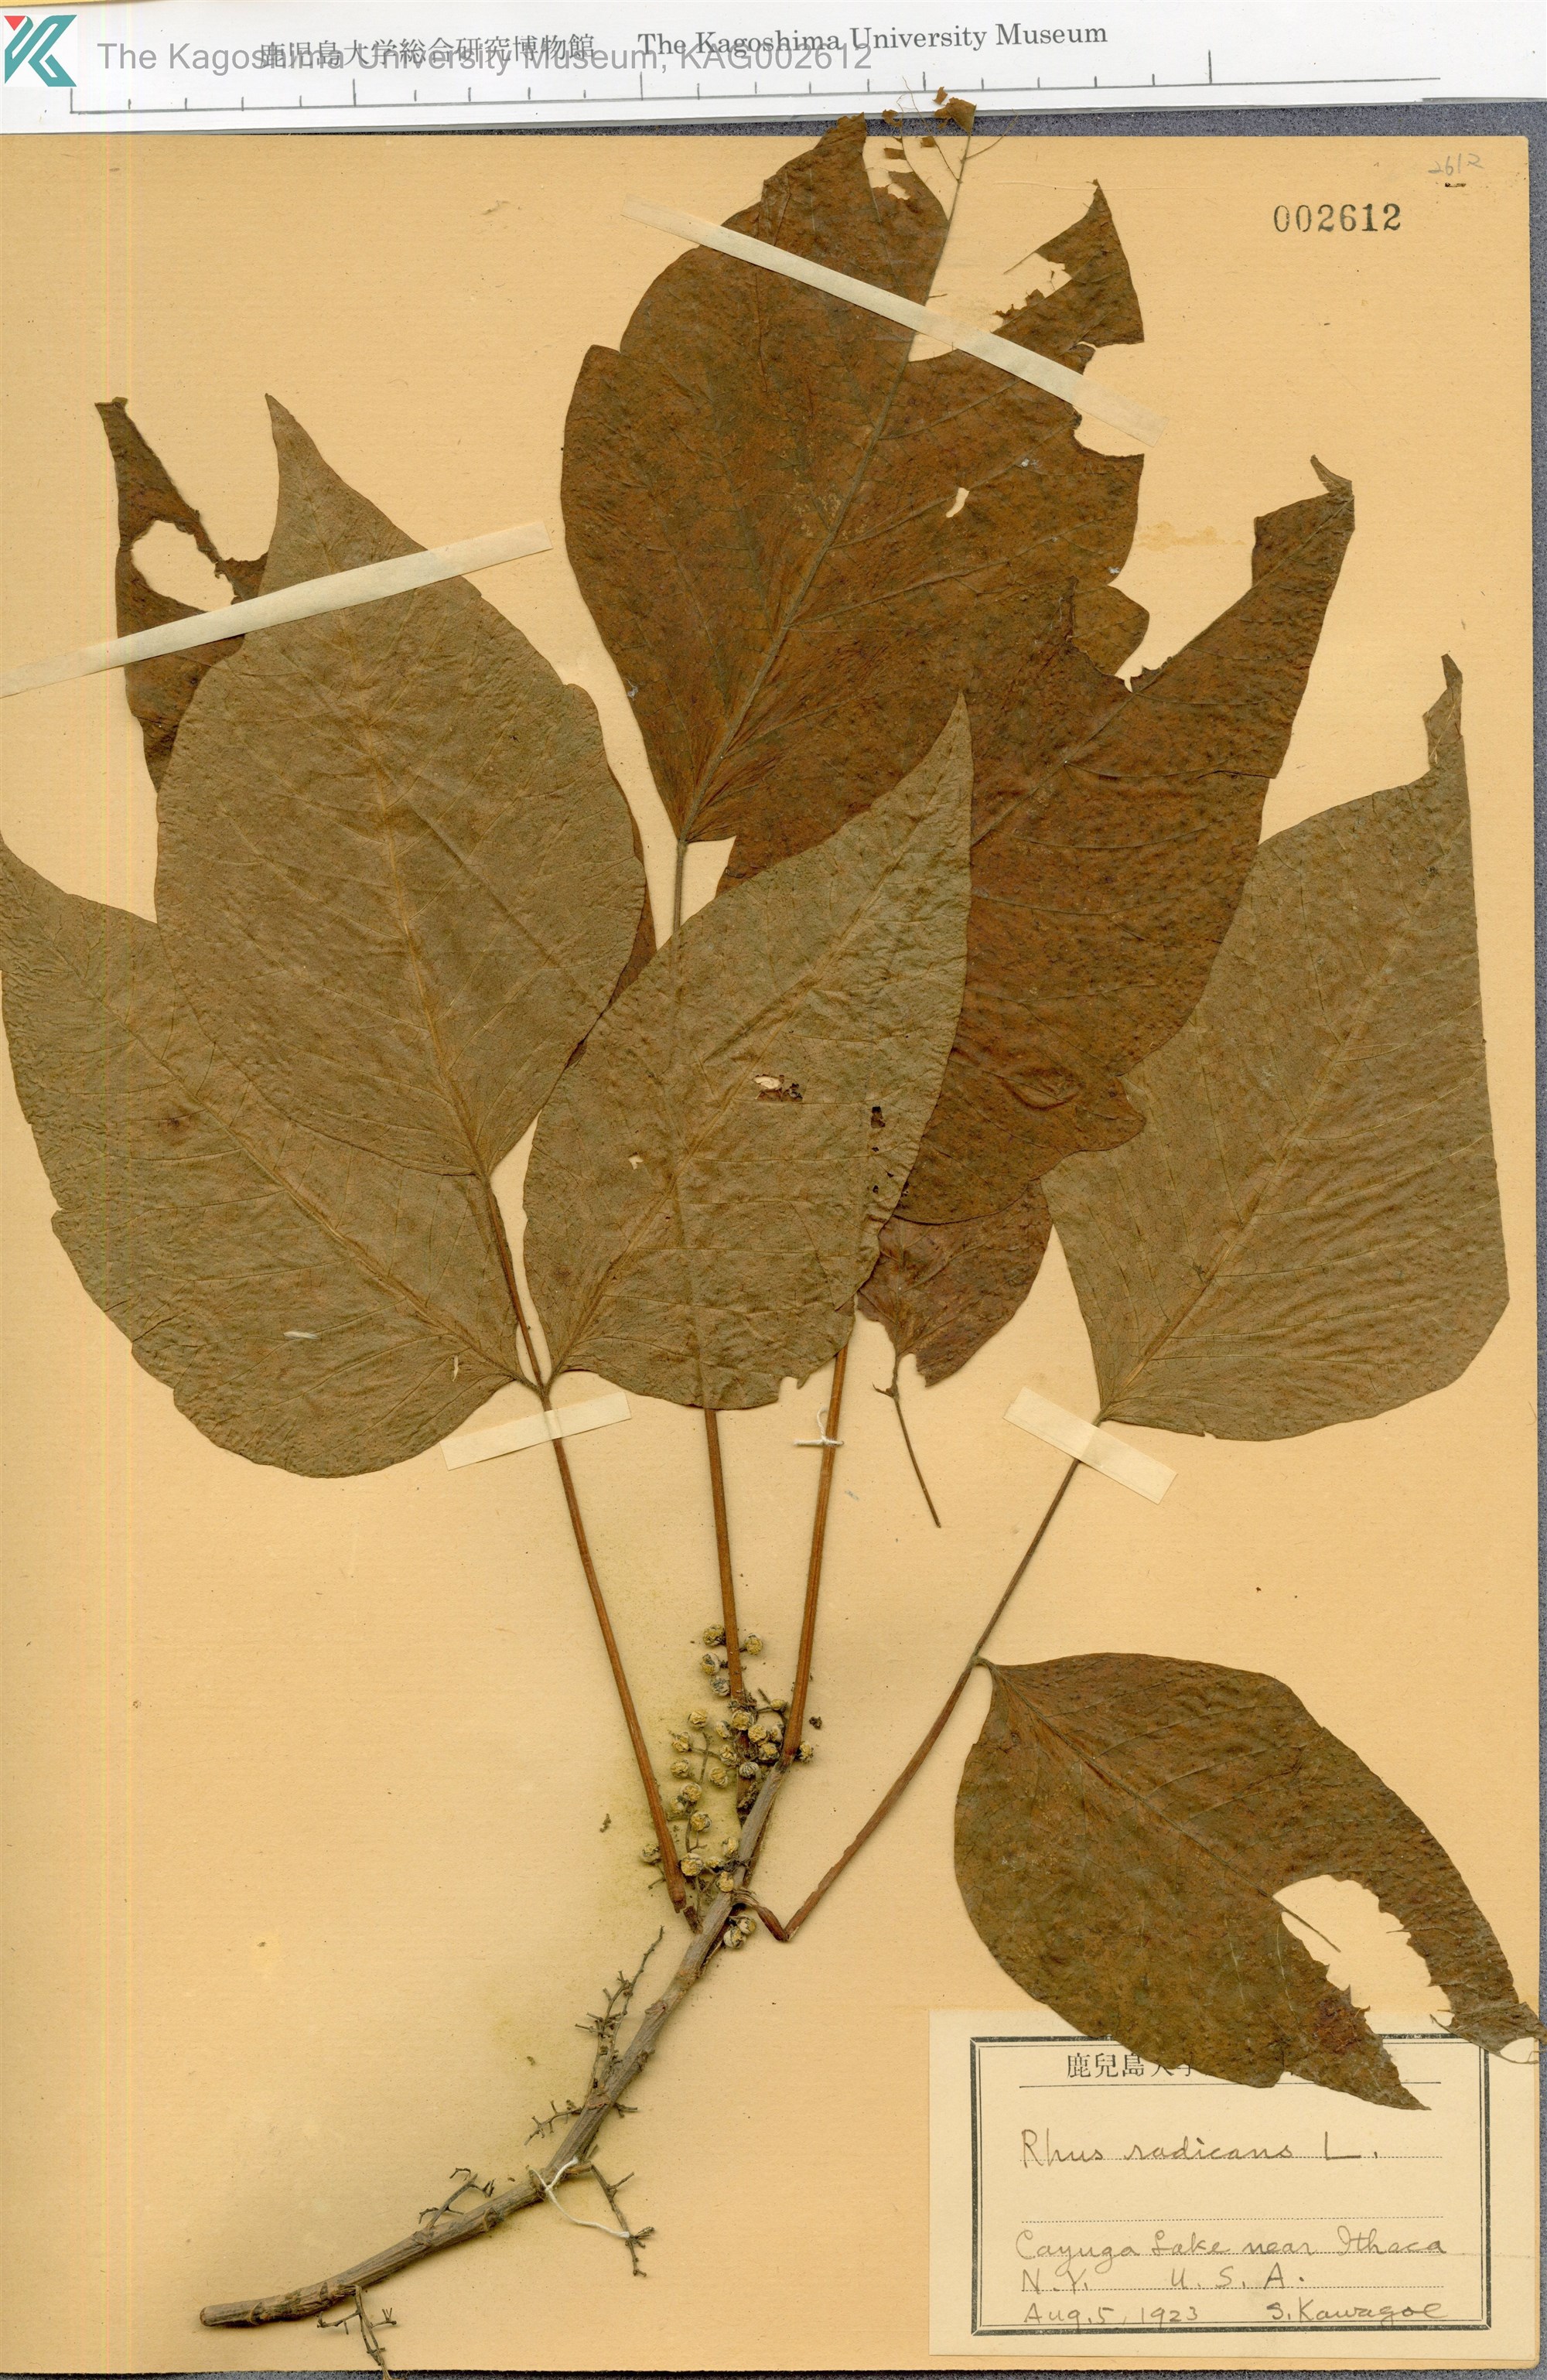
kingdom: Plantae
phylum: Tracheophyta
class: Magnoliopsida
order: Sapindales
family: Anacardiaceae
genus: Toxicodendron
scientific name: Toxicodendron radicans
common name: Poison ivy
